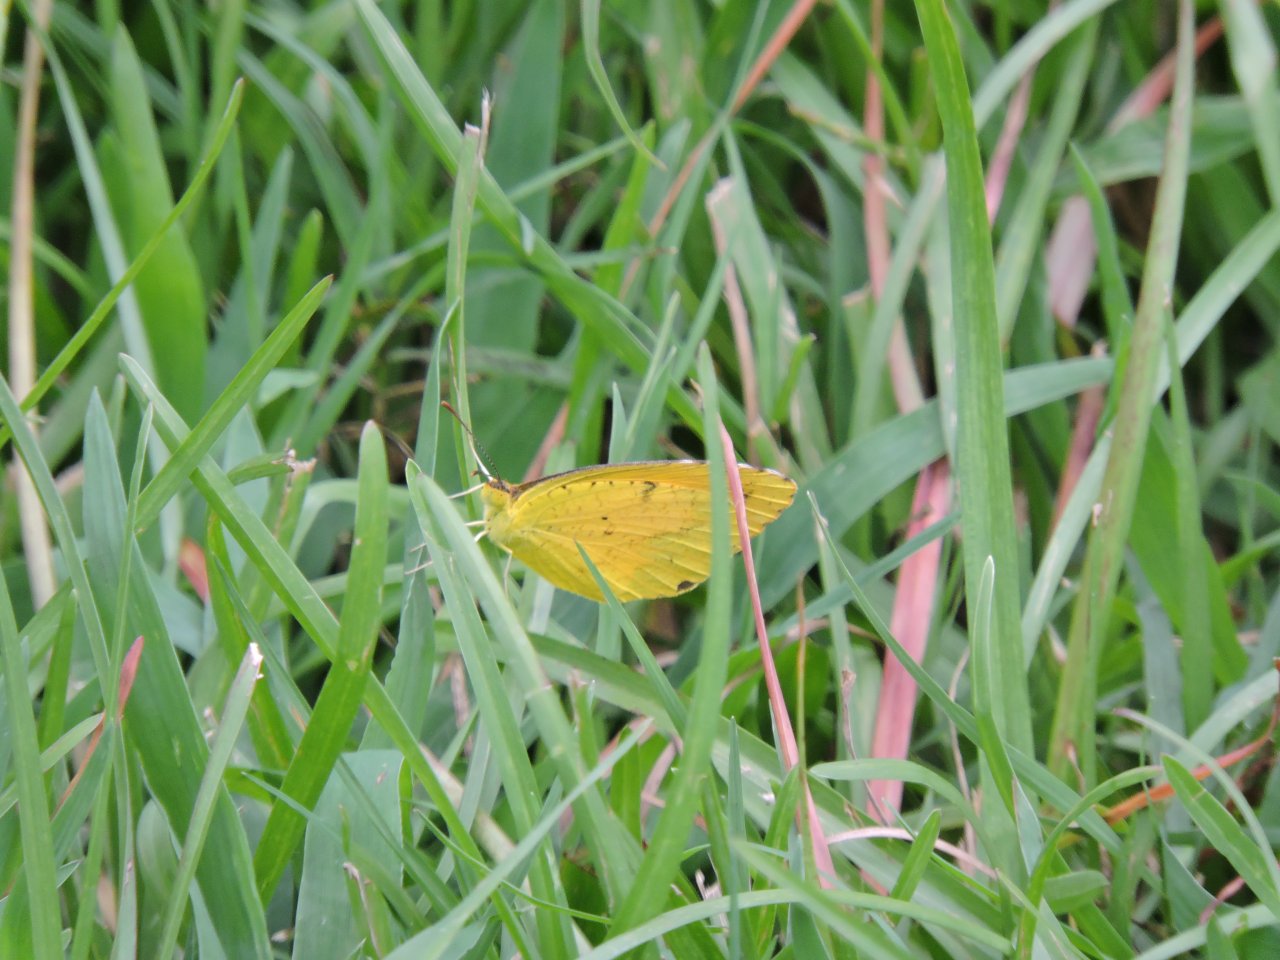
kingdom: Animalia
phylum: Arthropoda
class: Insecta
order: Lepidoptera
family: Pieridae
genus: Abaeis
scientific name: Abaeis nicippe
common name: Sleepy Orange
